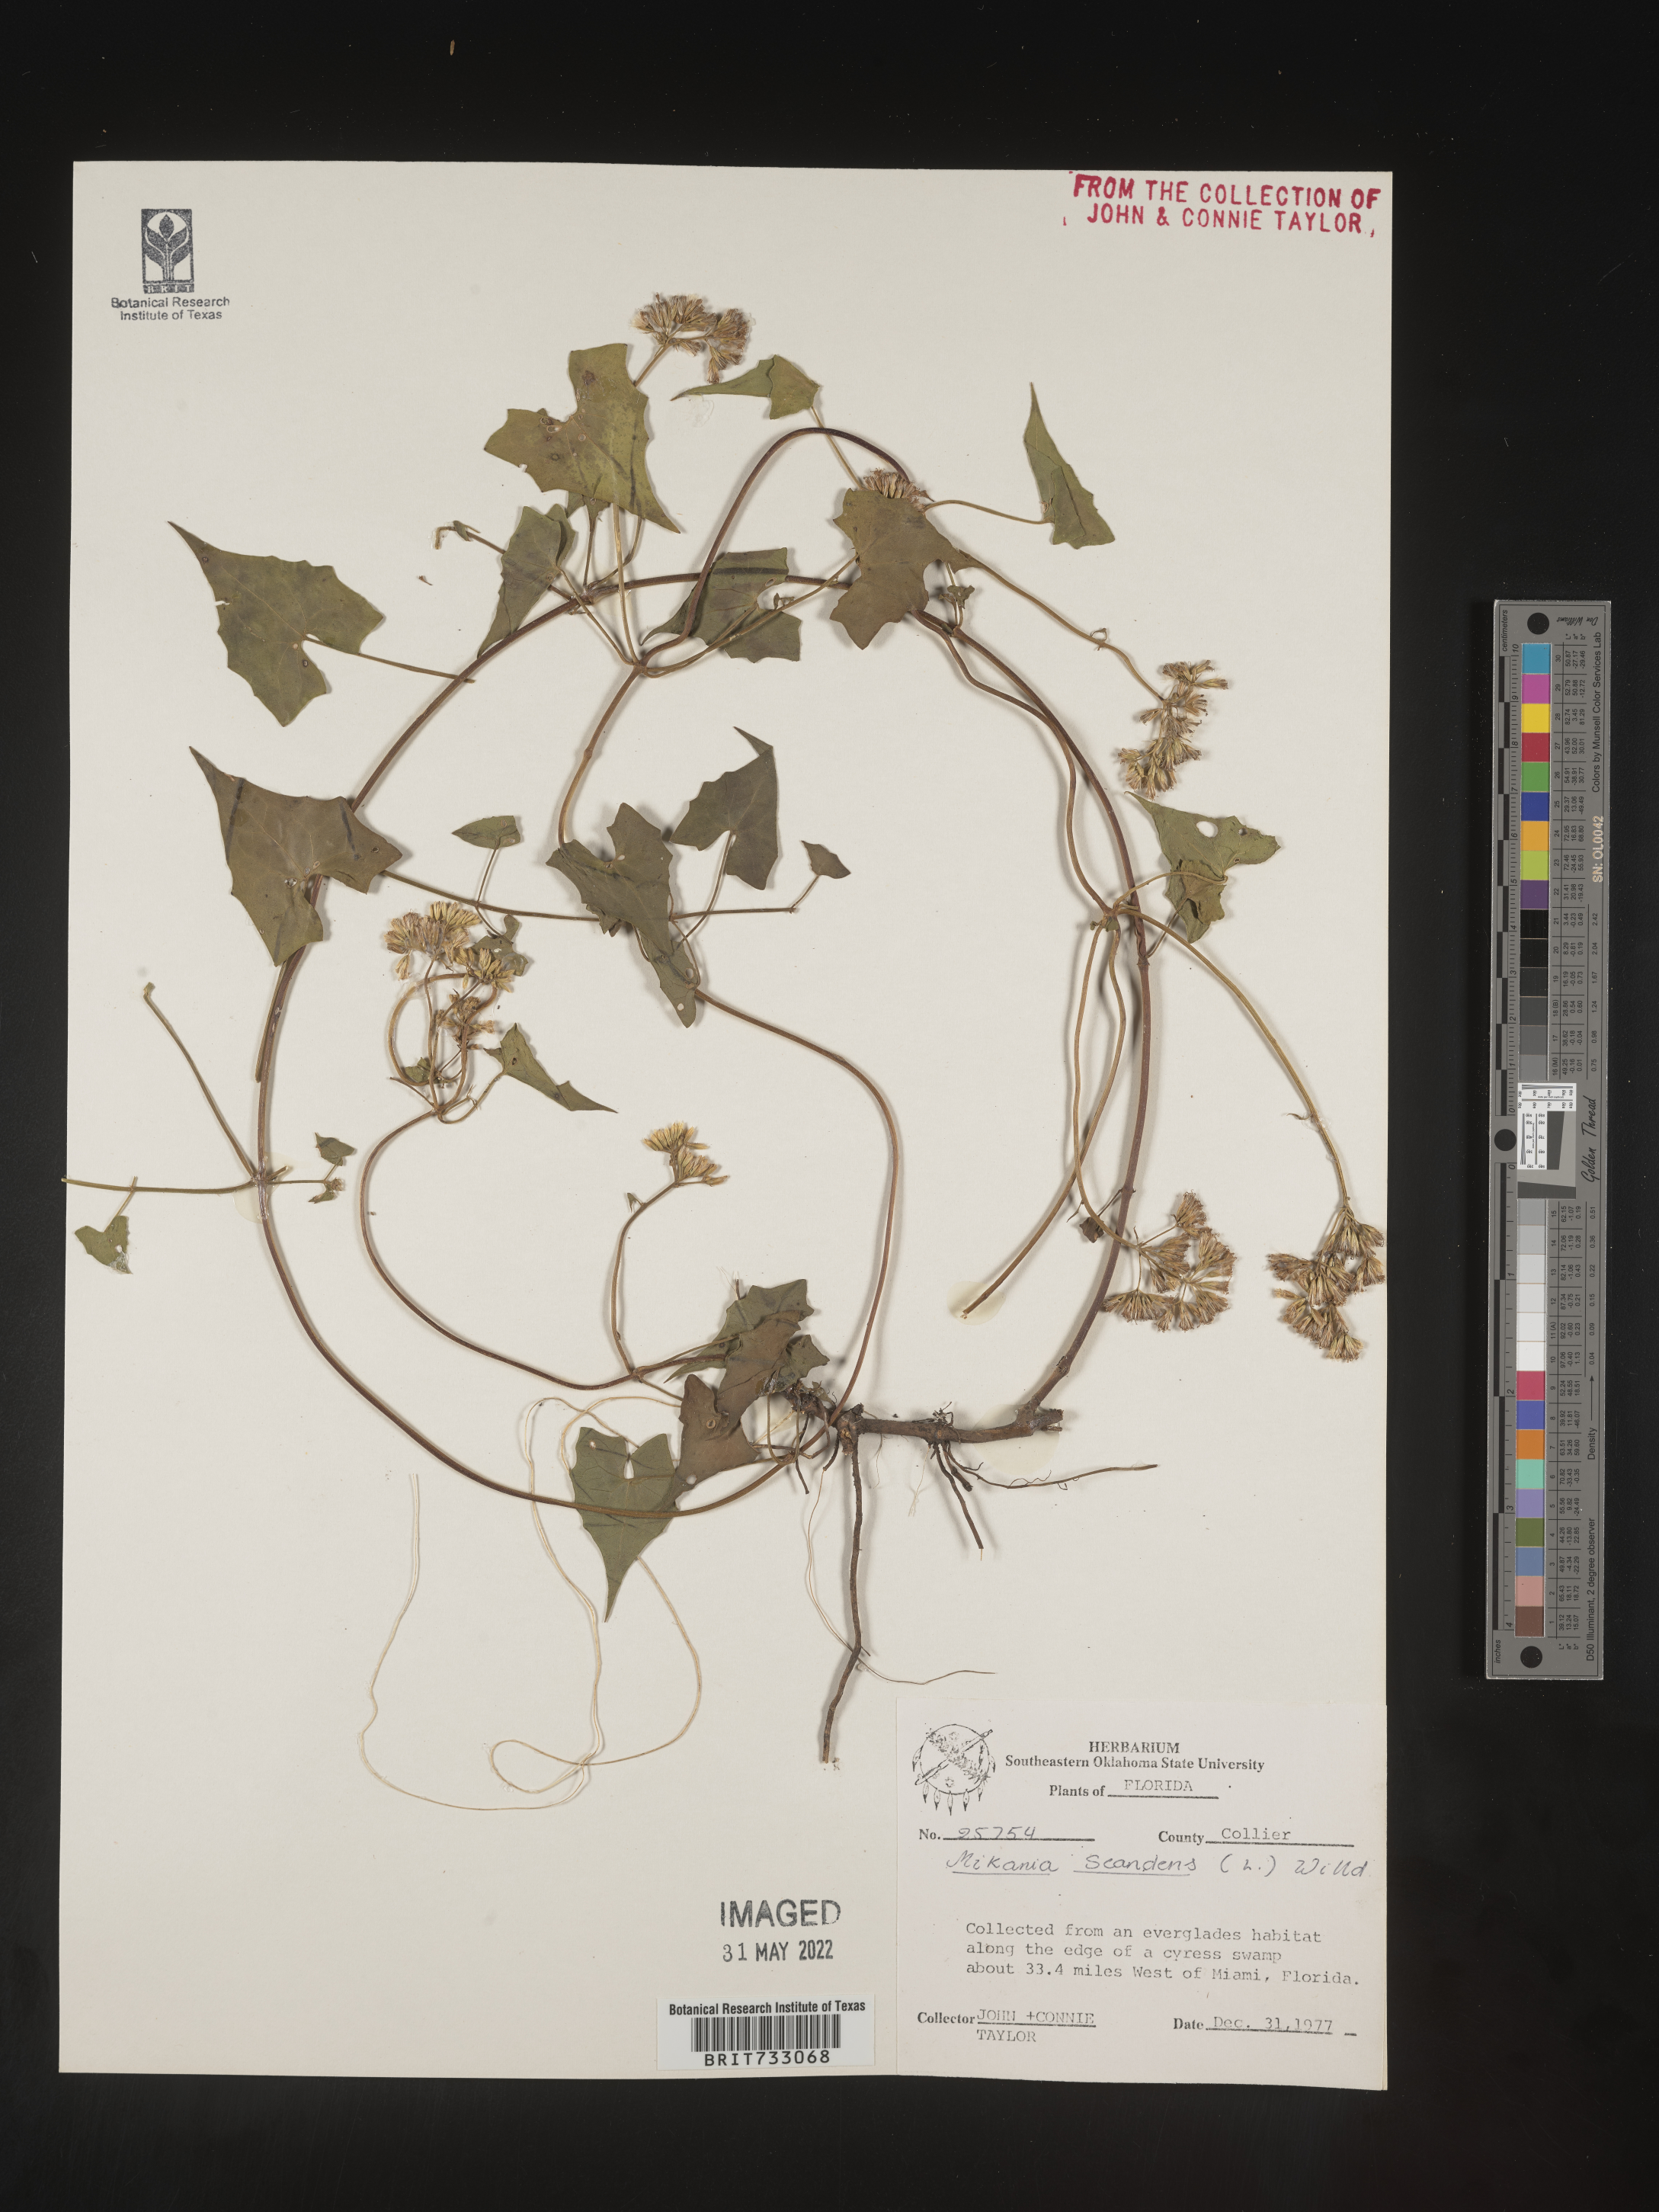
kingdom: Plantae
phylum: Tracheophyta
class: Magnoliopsida
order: Asterales
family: Asteraceae
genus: Mikania
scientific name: Mikania scandens
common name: Climbing hempvine
